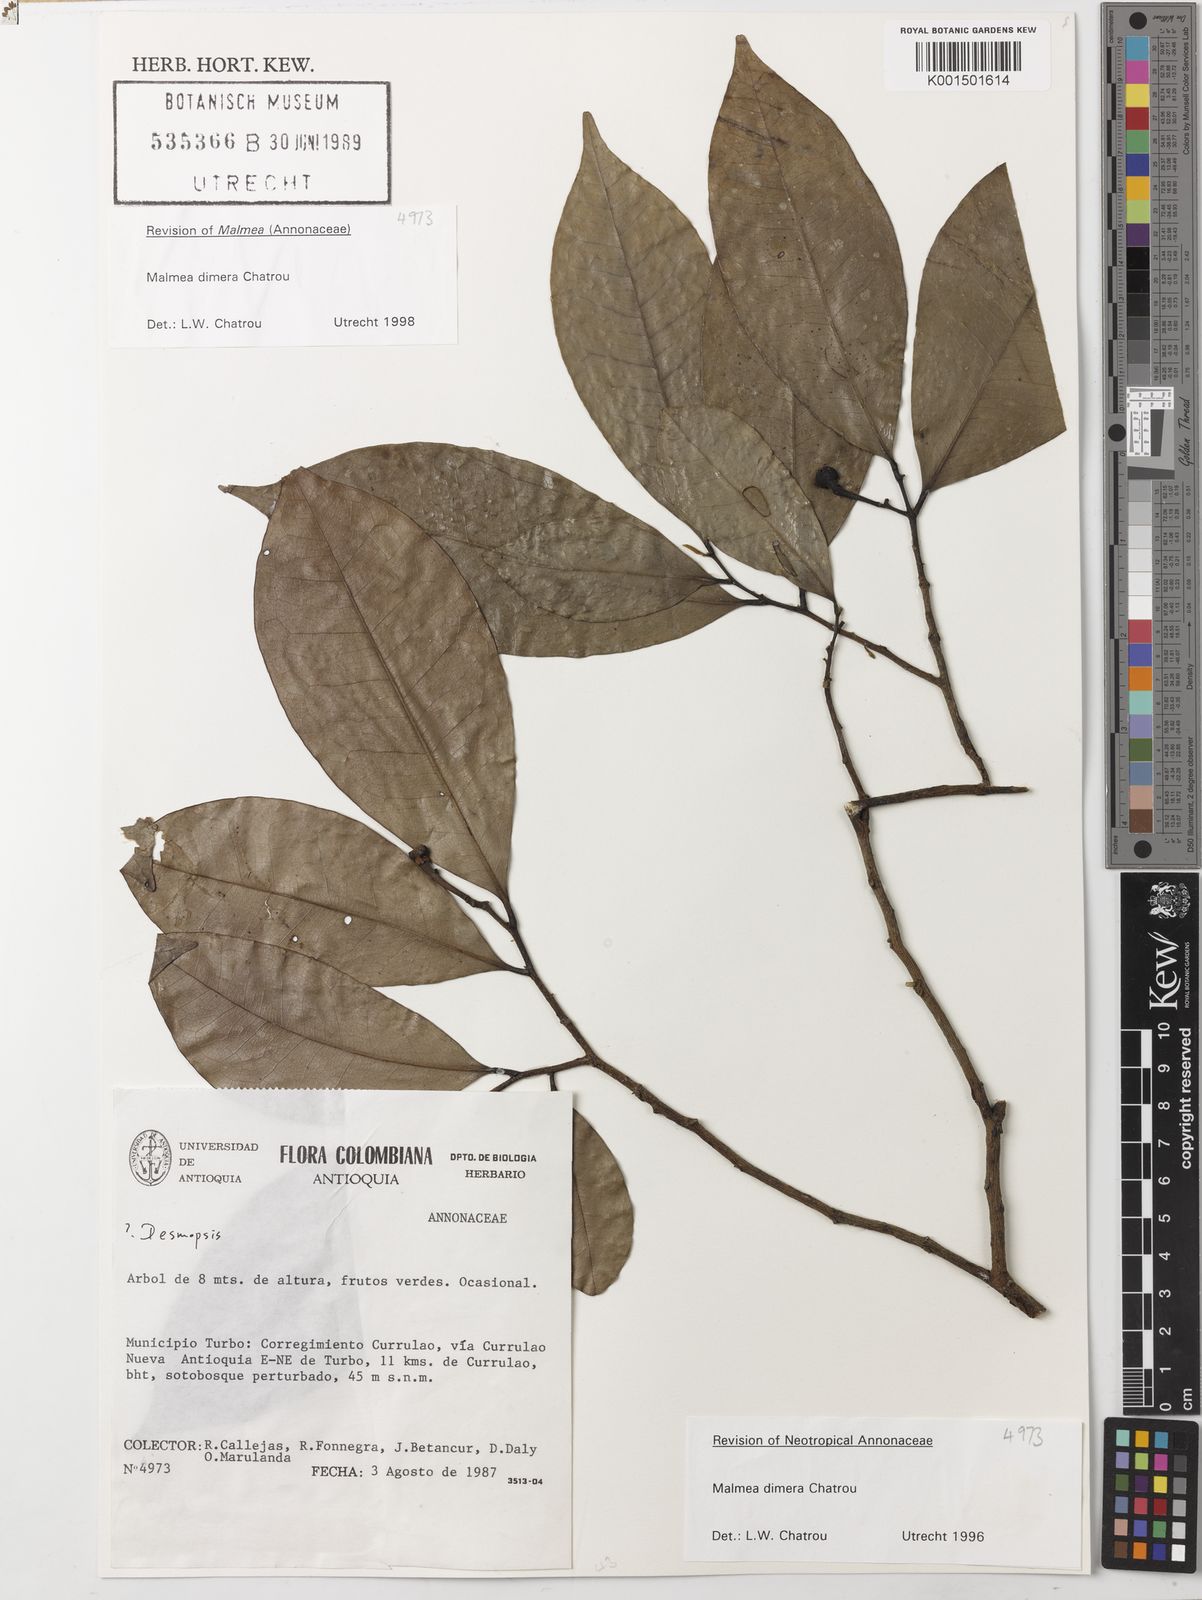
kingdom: Plantae
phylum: Tracheophyta
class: Magnoliopsida
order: Magnoliales
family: Annonaceae
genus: Malmea
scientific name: Malmea dimera
